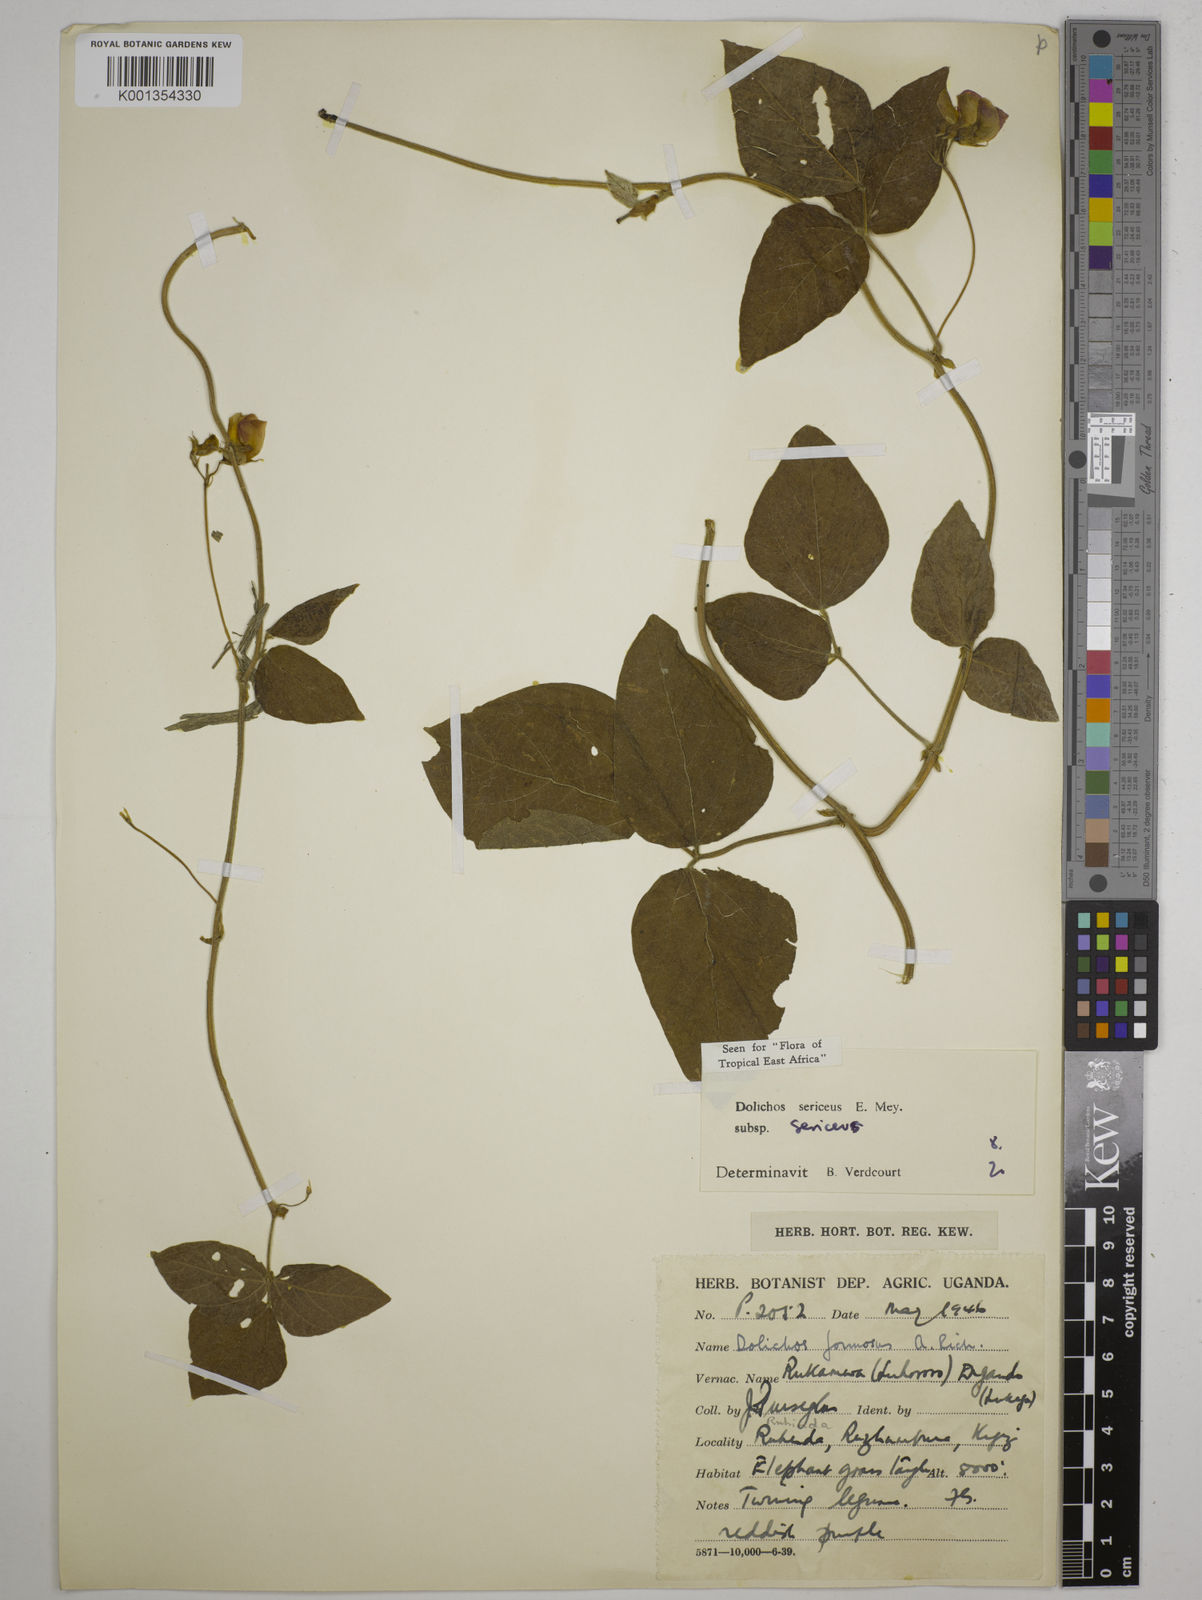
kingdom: Plantae
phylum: Tracheophyta
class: Magnoliopsida
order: Fabales
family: Fabaceae
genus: Dolichos
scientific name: Dolichos sericeus
